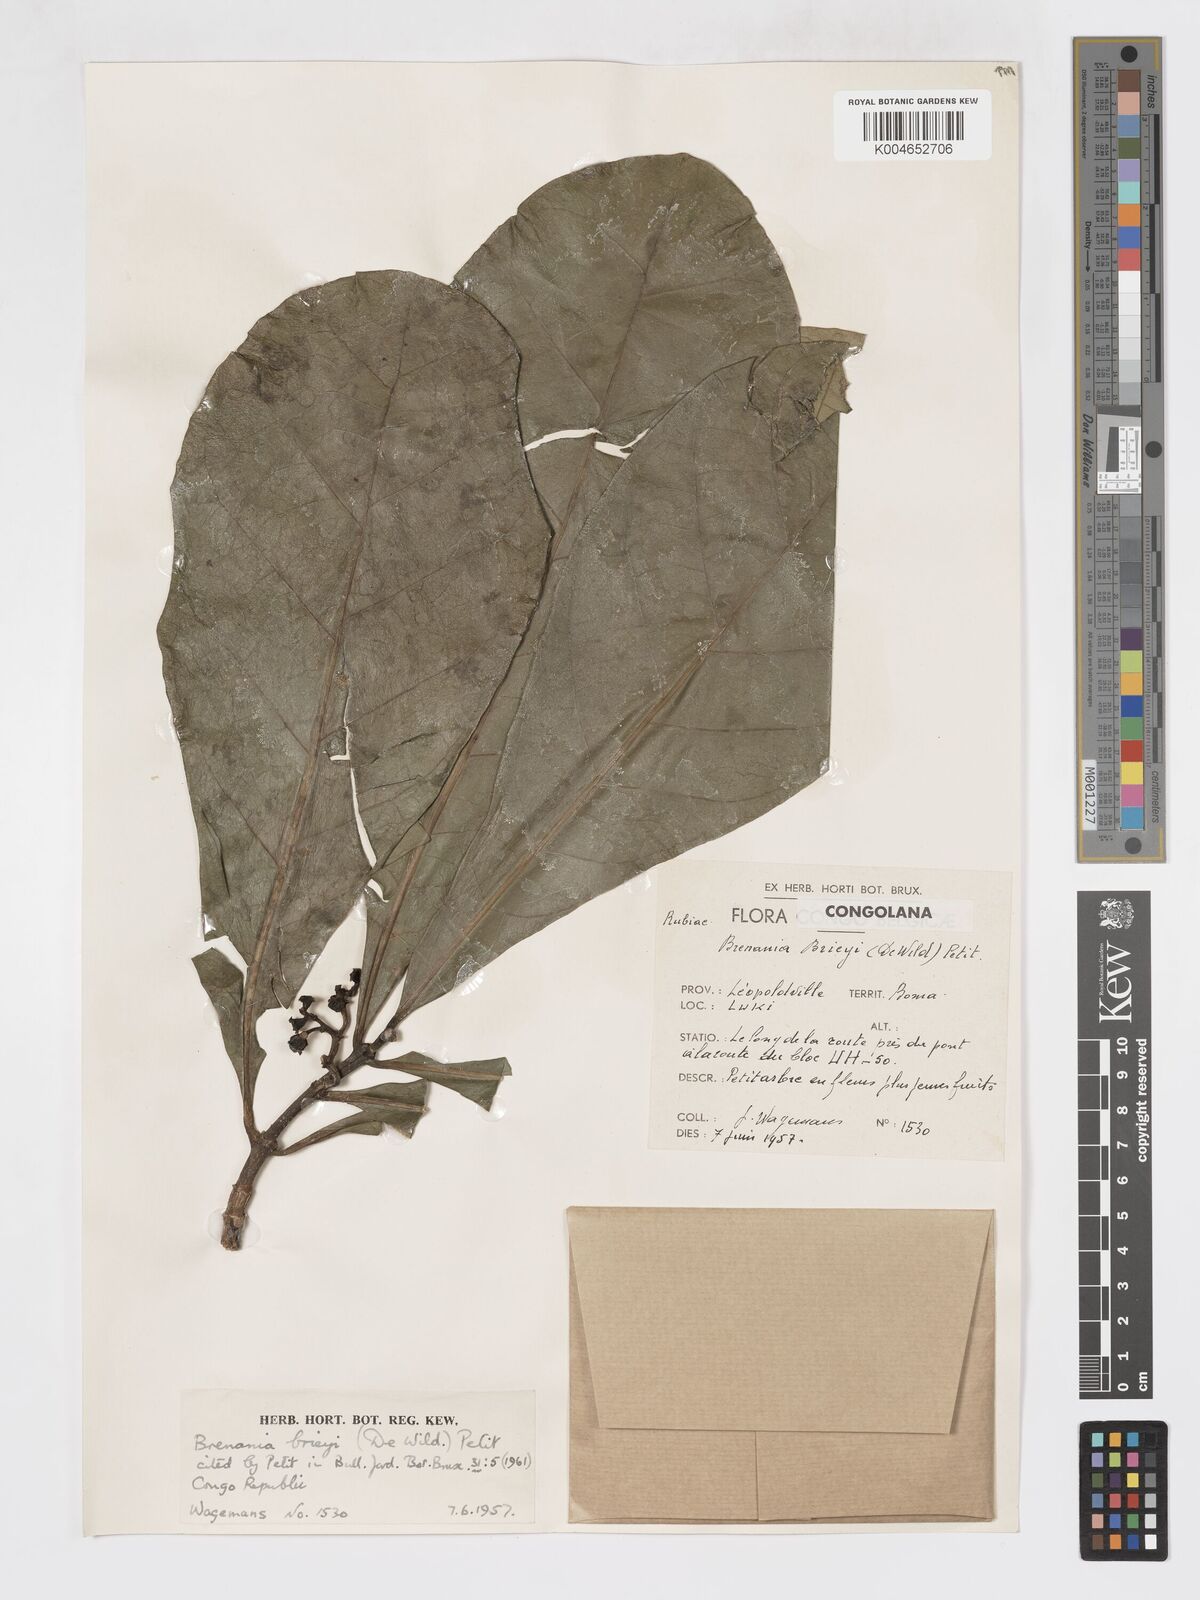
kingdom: Plantae
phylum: Tracheophyta
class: Magnoliopsida
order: Gentianales
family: Rubiaceae
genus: Brenania
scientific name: Brenania brieyi
